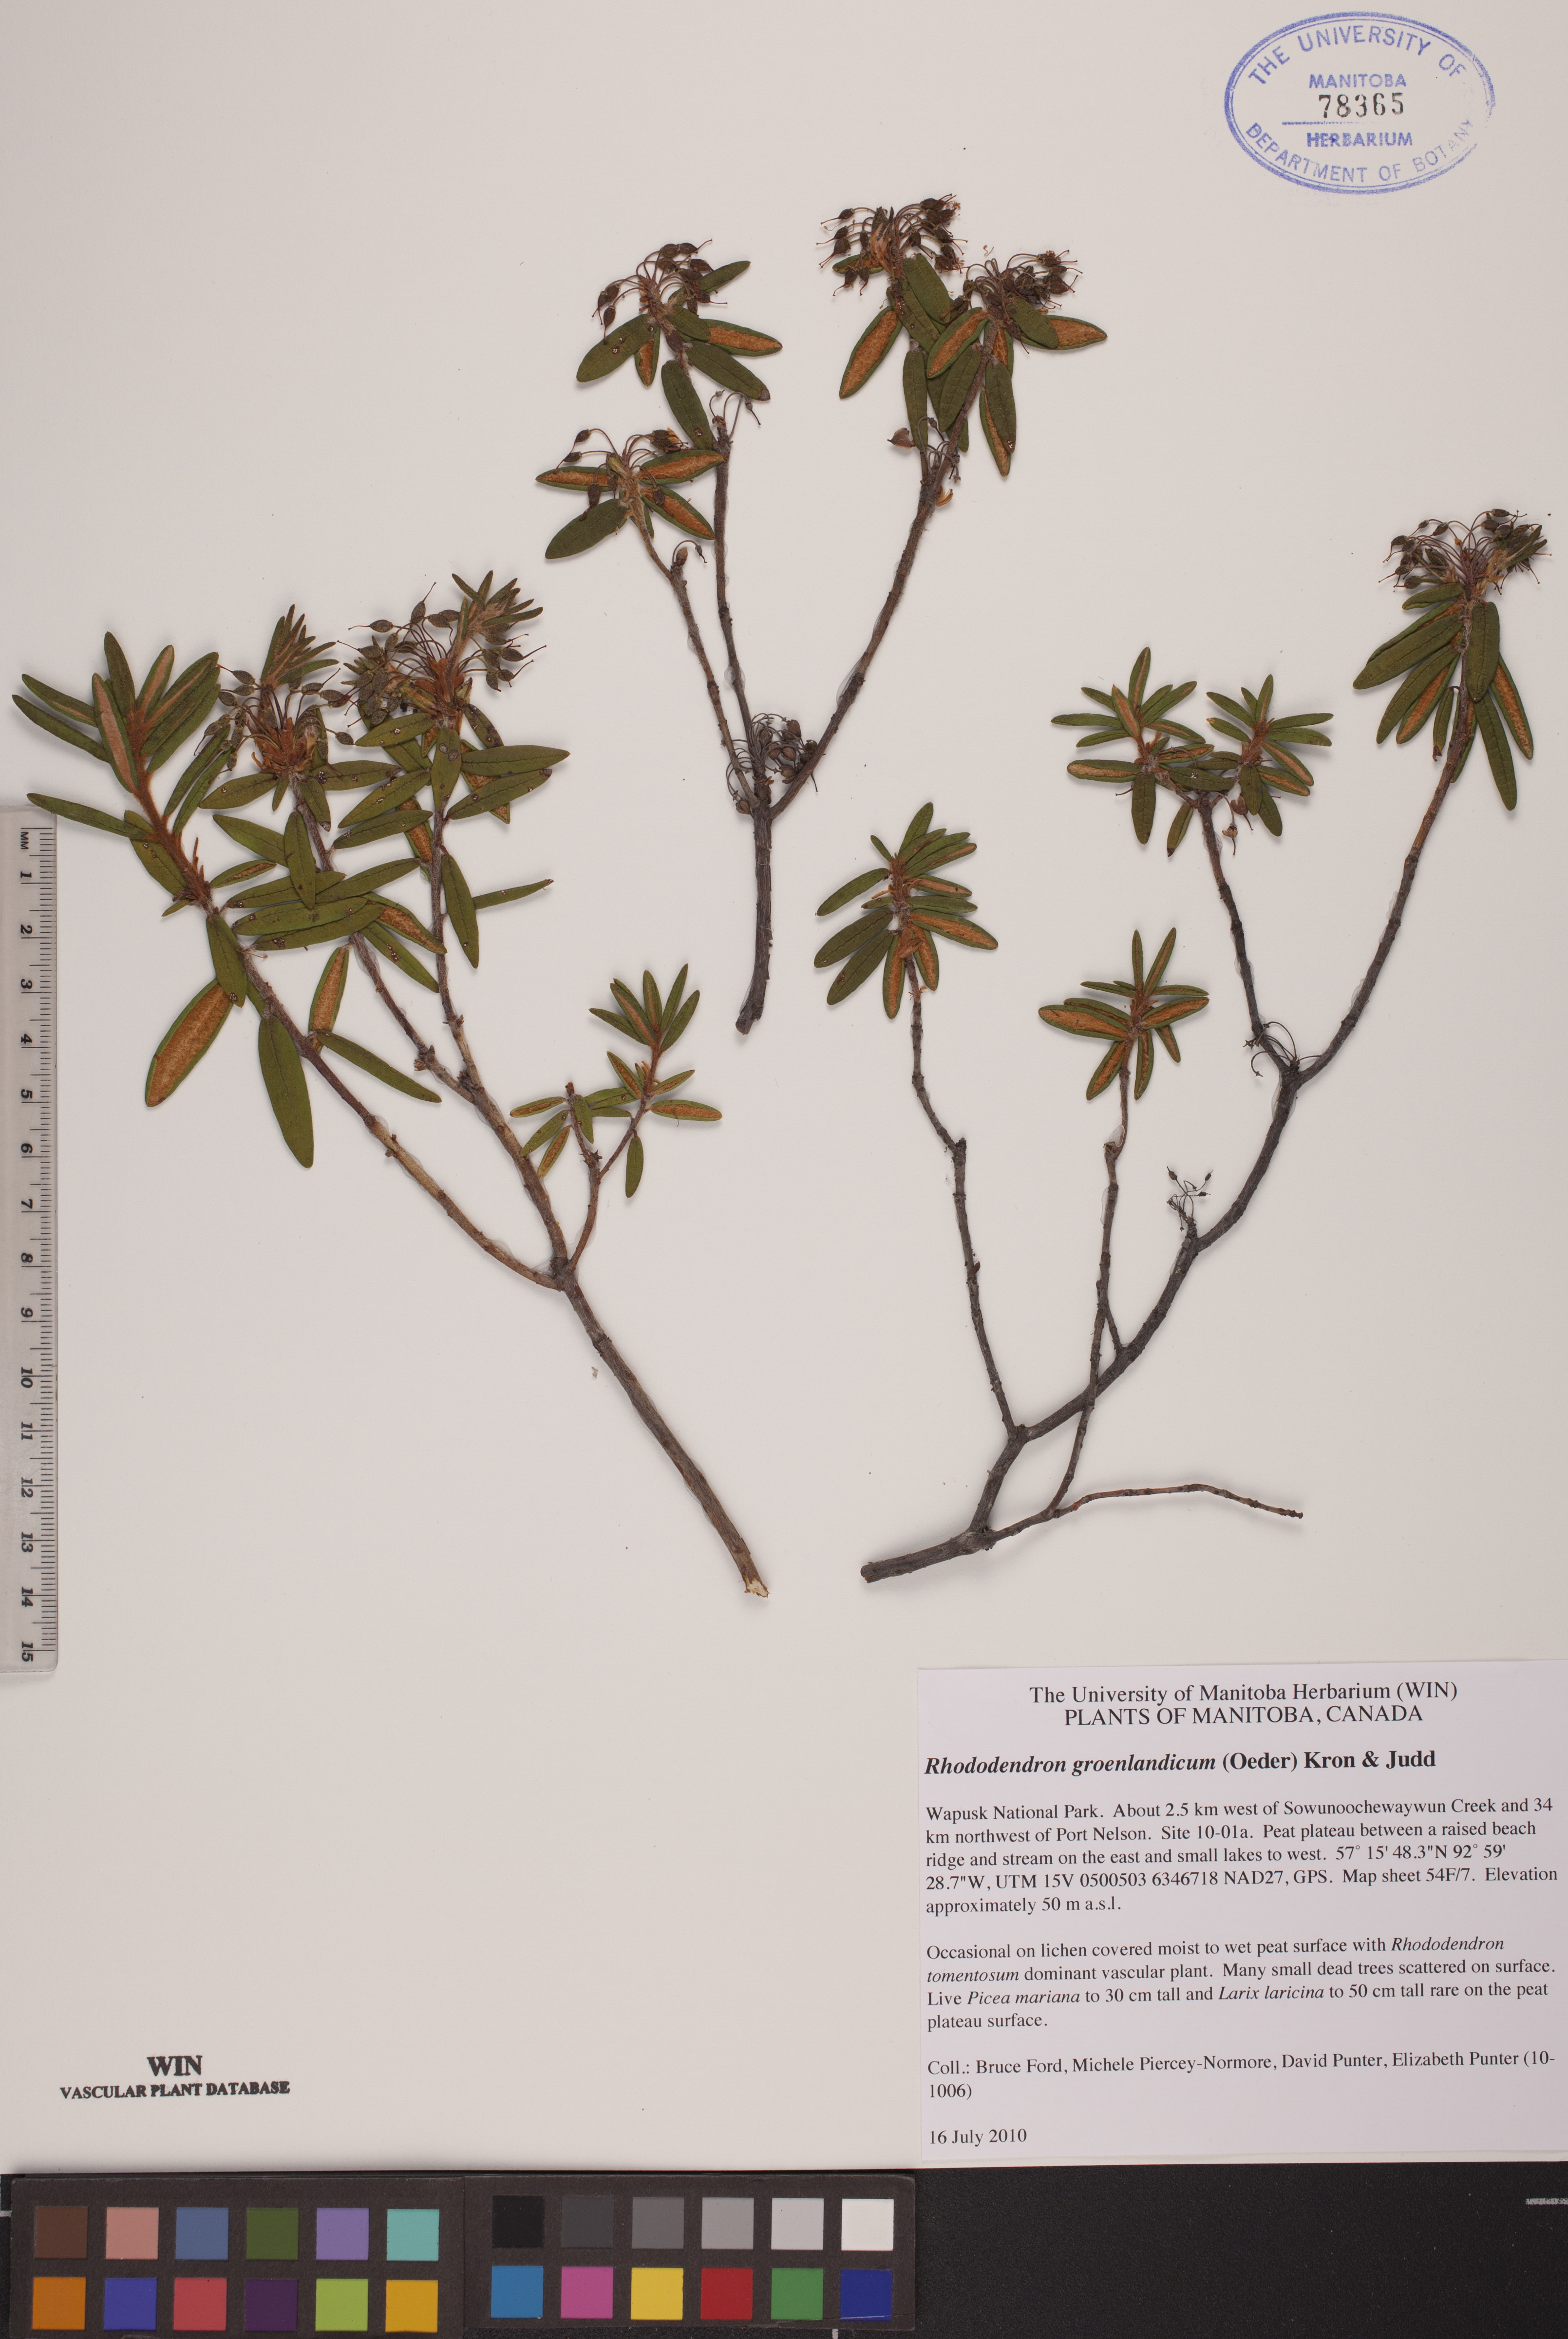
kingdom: Plantae
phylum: Tracheophyta
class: Magnoliopsida
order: Ericales
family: Ericaceae
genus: Rhododendron
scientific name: Rhododendron groenlandicum
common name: Bog labrador tea
